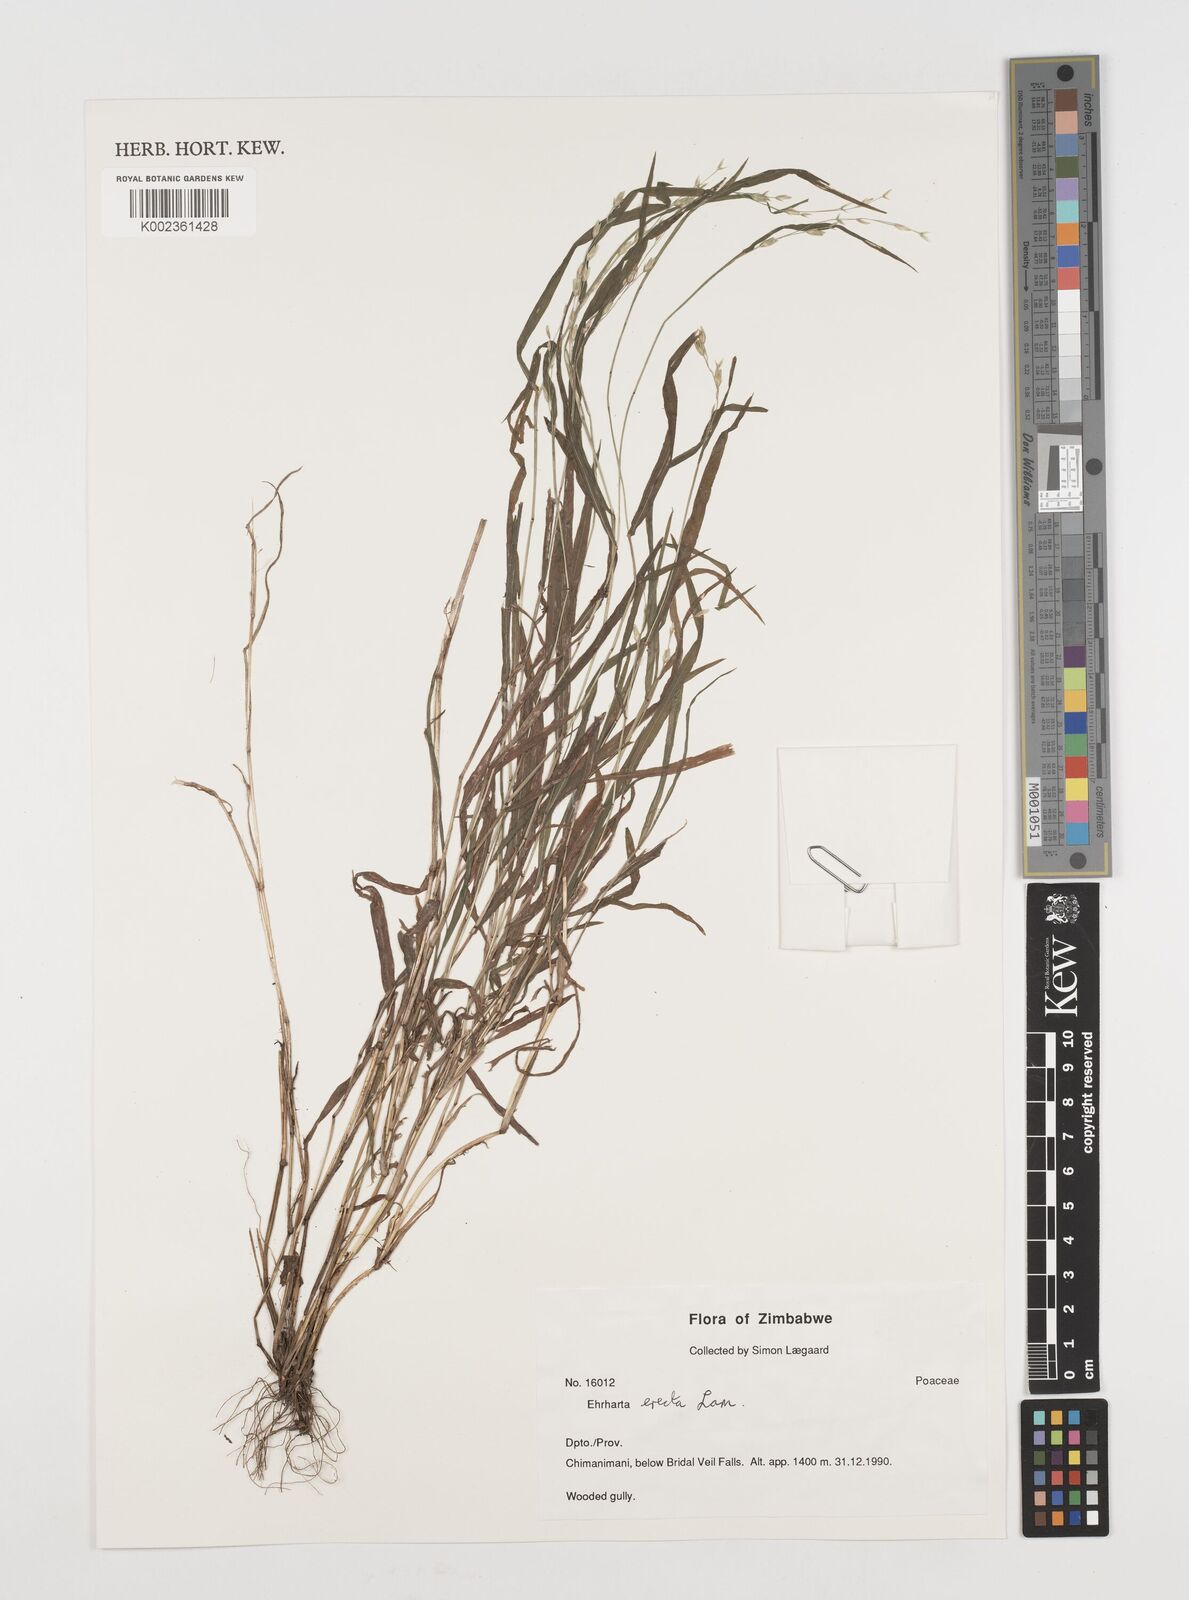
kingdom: Plantae
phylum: Tracheophyta
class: Liliopsida
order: Poales
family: Poaceae
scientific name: Poaceae
